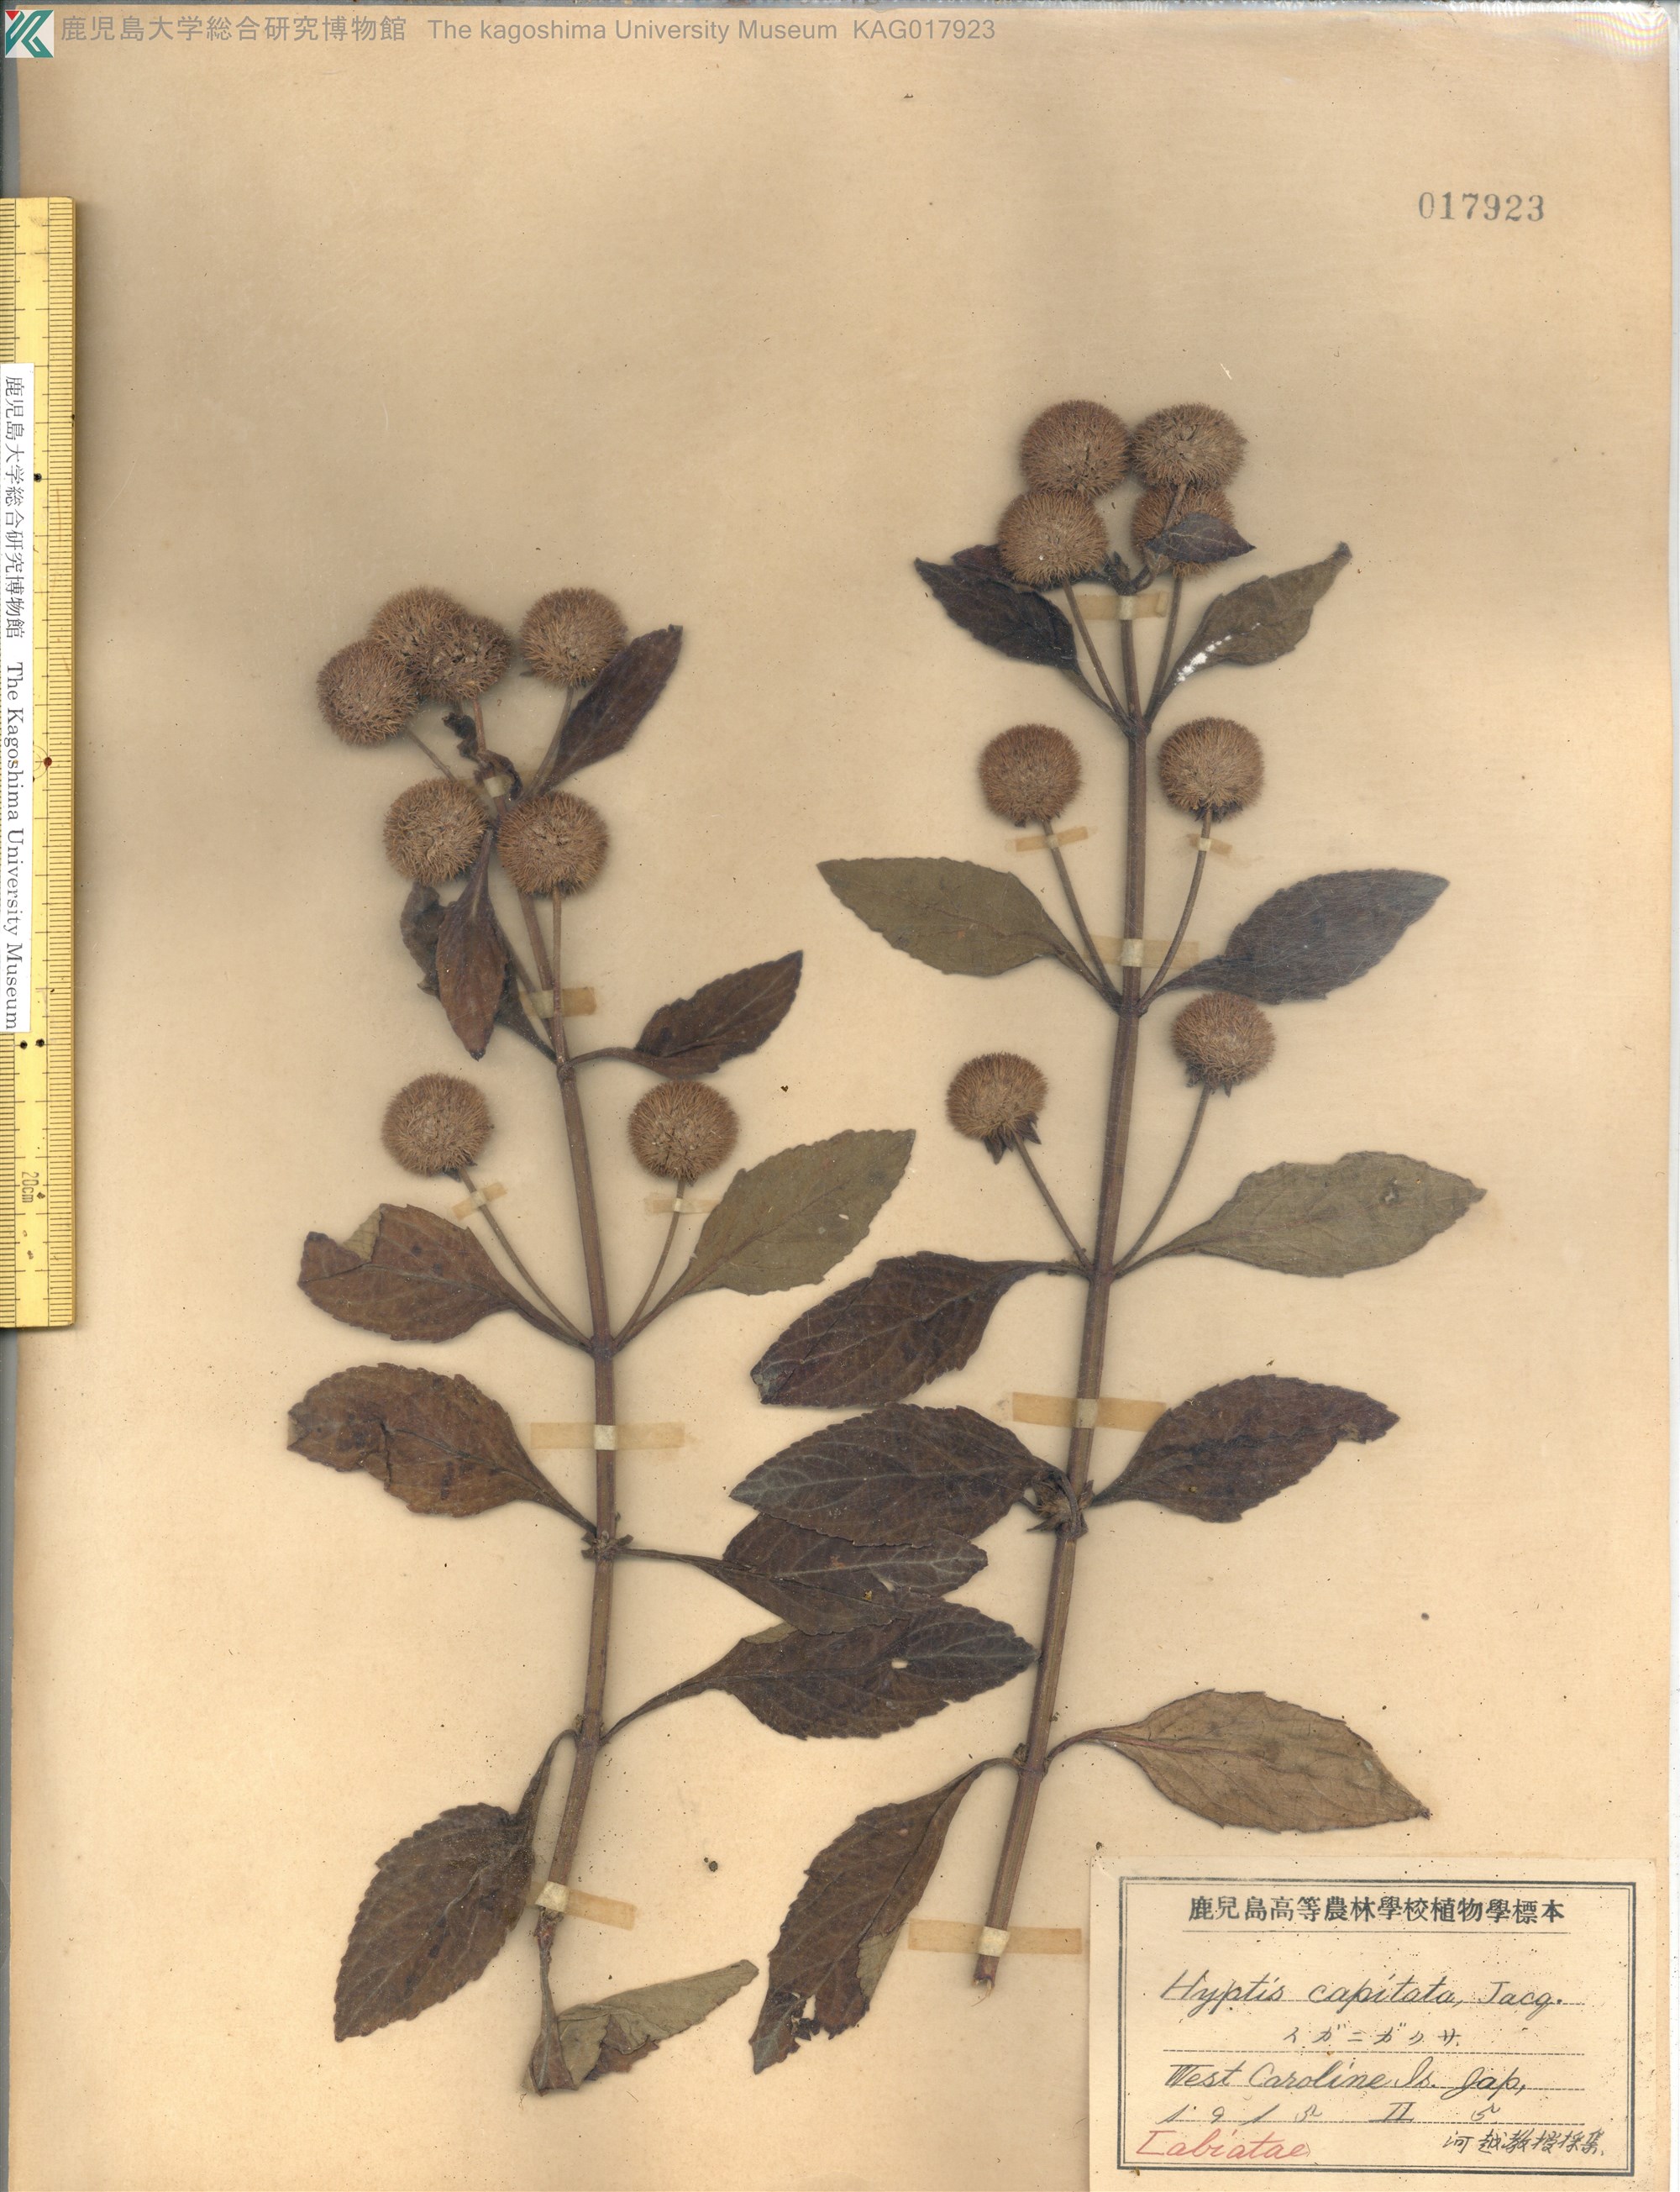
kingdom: Plantae
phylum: Tracheophyta
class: Magnoliopsida
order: Lamiales
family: Lamiaceae
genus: Hyptis
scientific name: Hyptis capitata
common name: False ironwort
